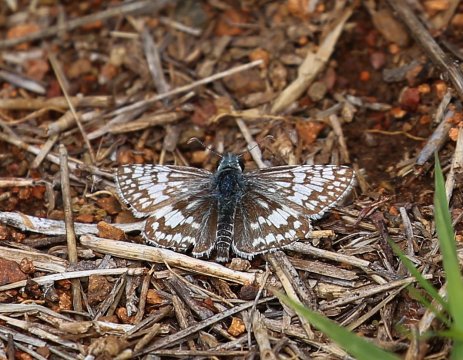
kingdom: Animalia
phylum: Arthropoda
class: Insecta
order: Lepidoptera
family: Hesperiidae
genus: Pyrgus
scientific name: Pyrgus communis
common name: Common Checkered-Skipper
